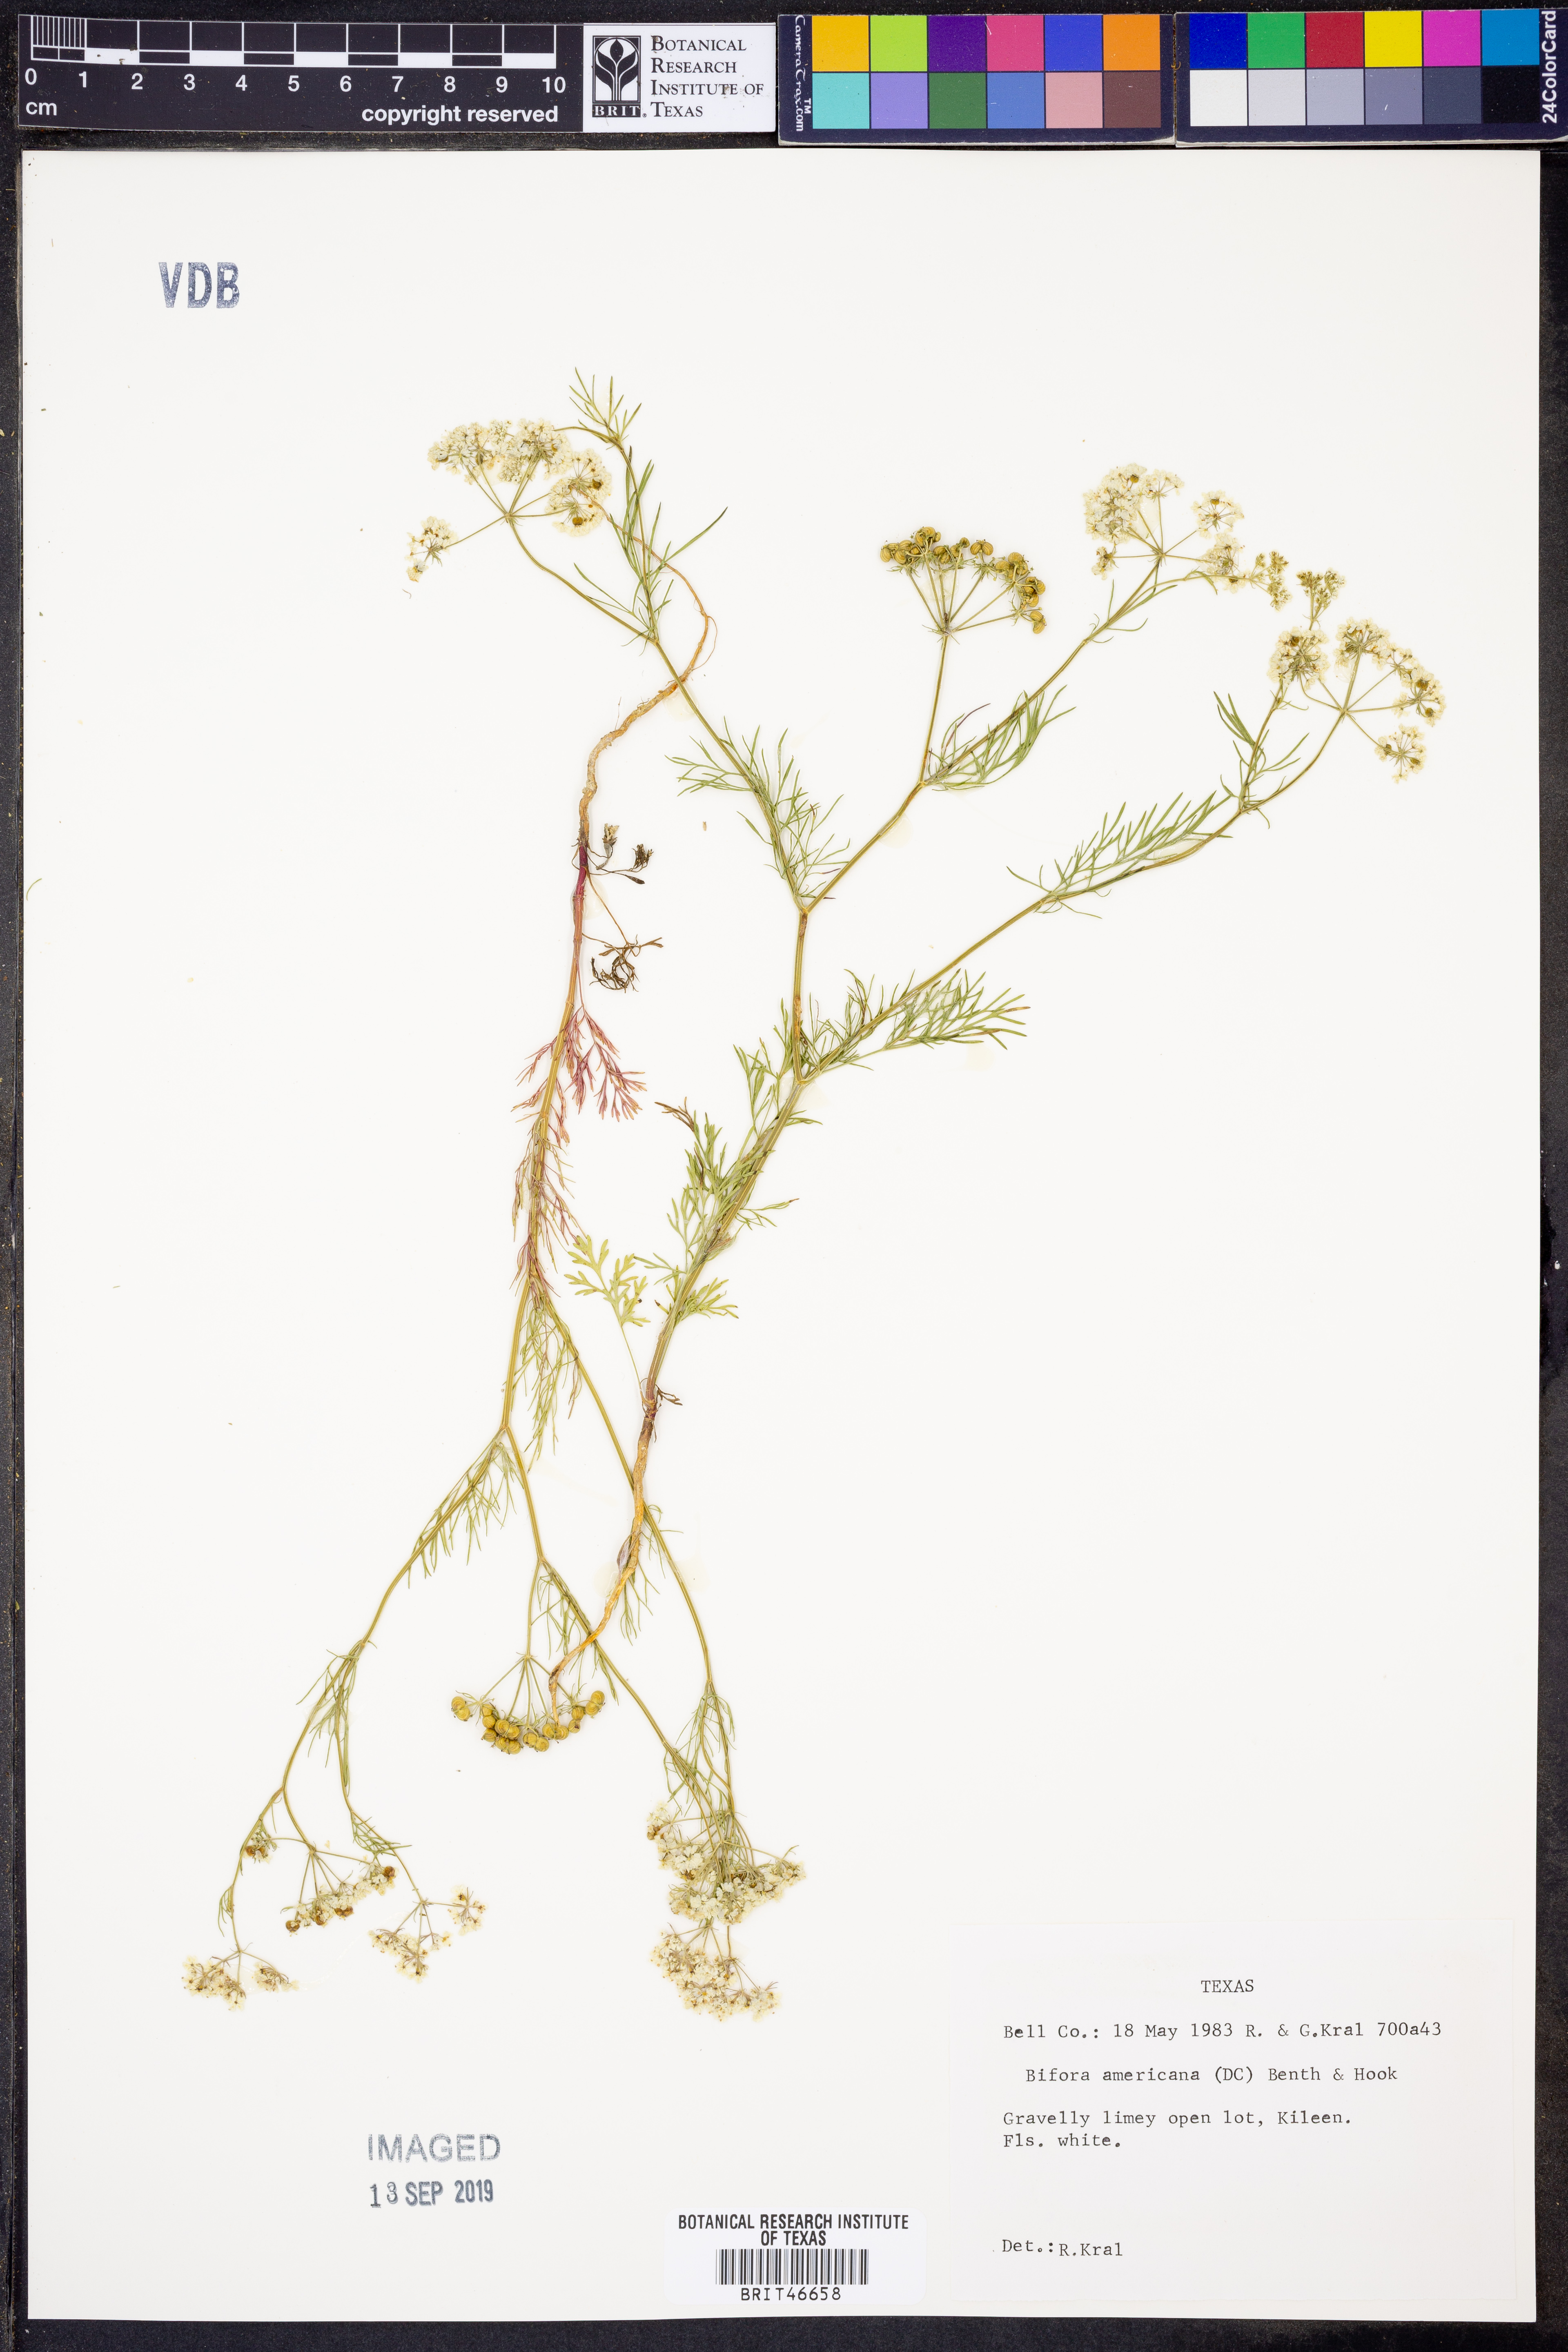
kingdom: Plantae
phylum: Tracheophyta
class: Magnoliopsida
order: Apiales
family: Apiaceae
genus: Atrema
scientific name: Atrema americanum
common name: Prairie-bishop
